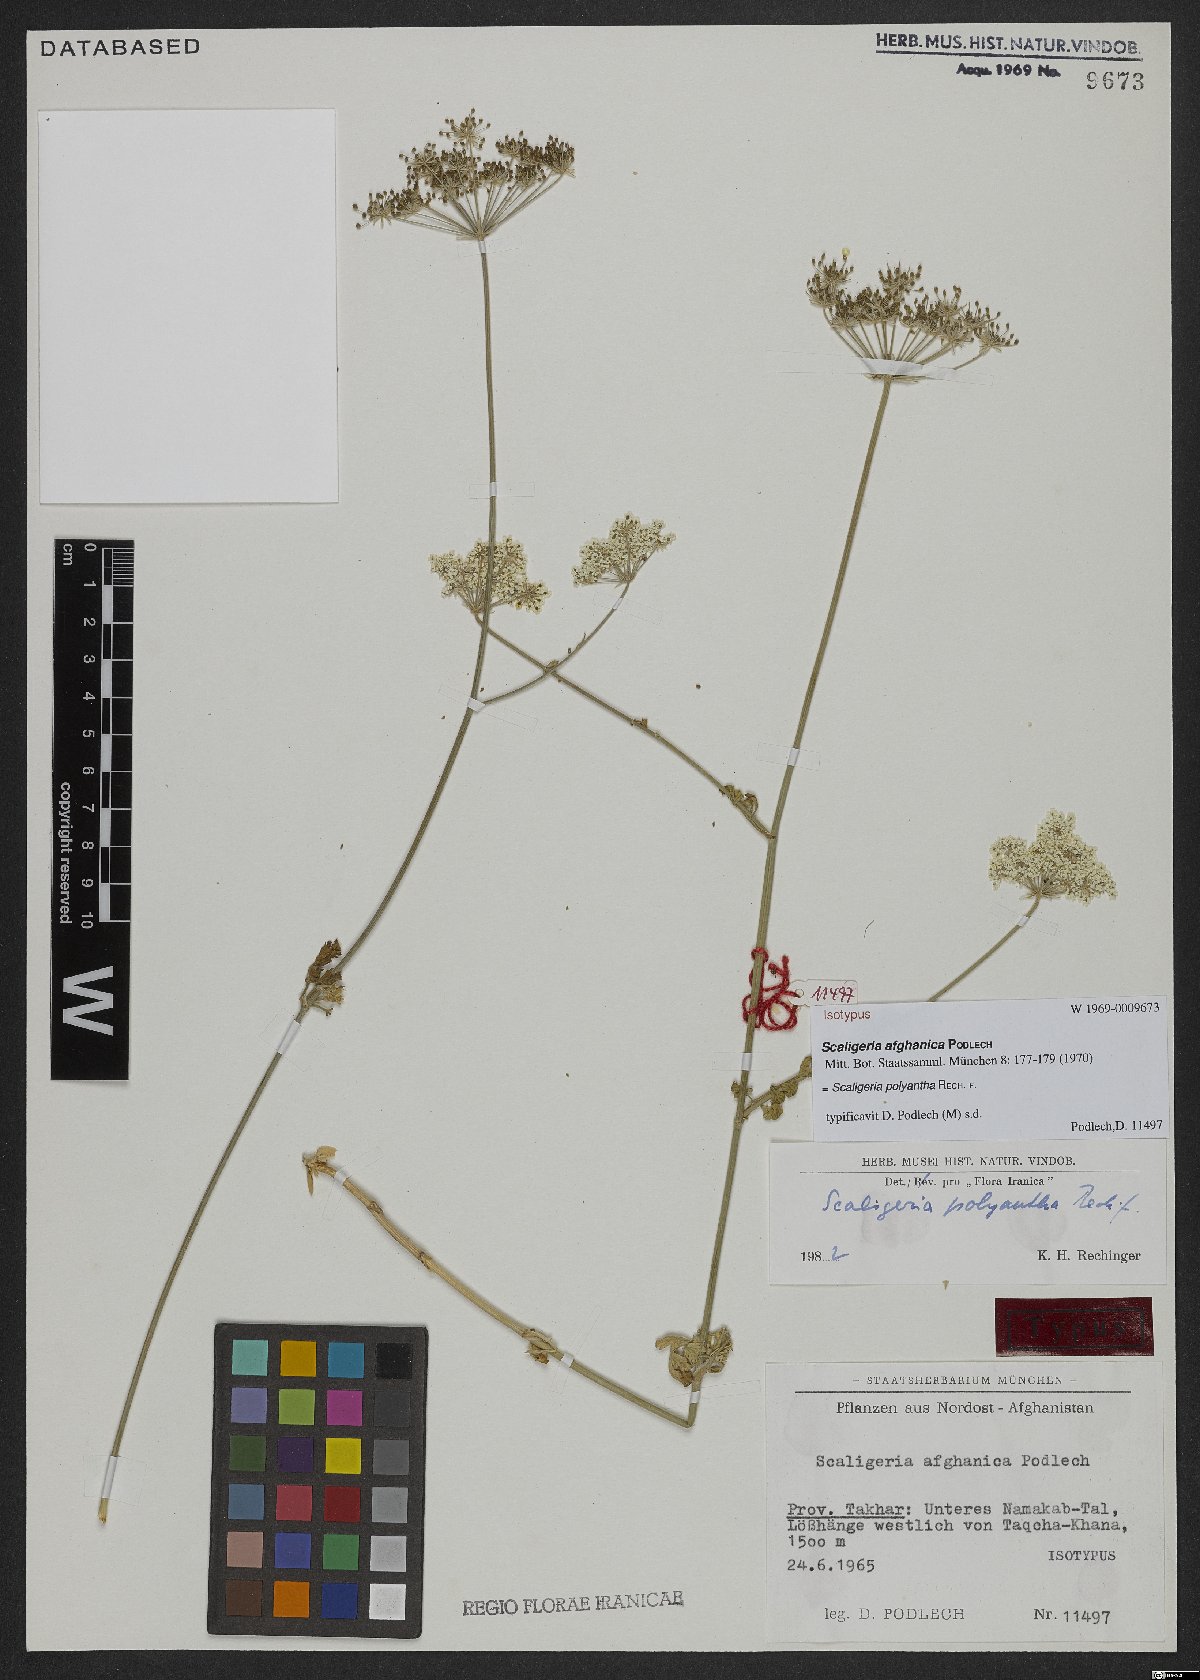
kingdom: Plantae
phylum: Tracheophyta
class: Magnoliopsida
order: Apiales
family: Apiaceae
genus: Scaligeria
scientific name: Scaligeria hirtula
